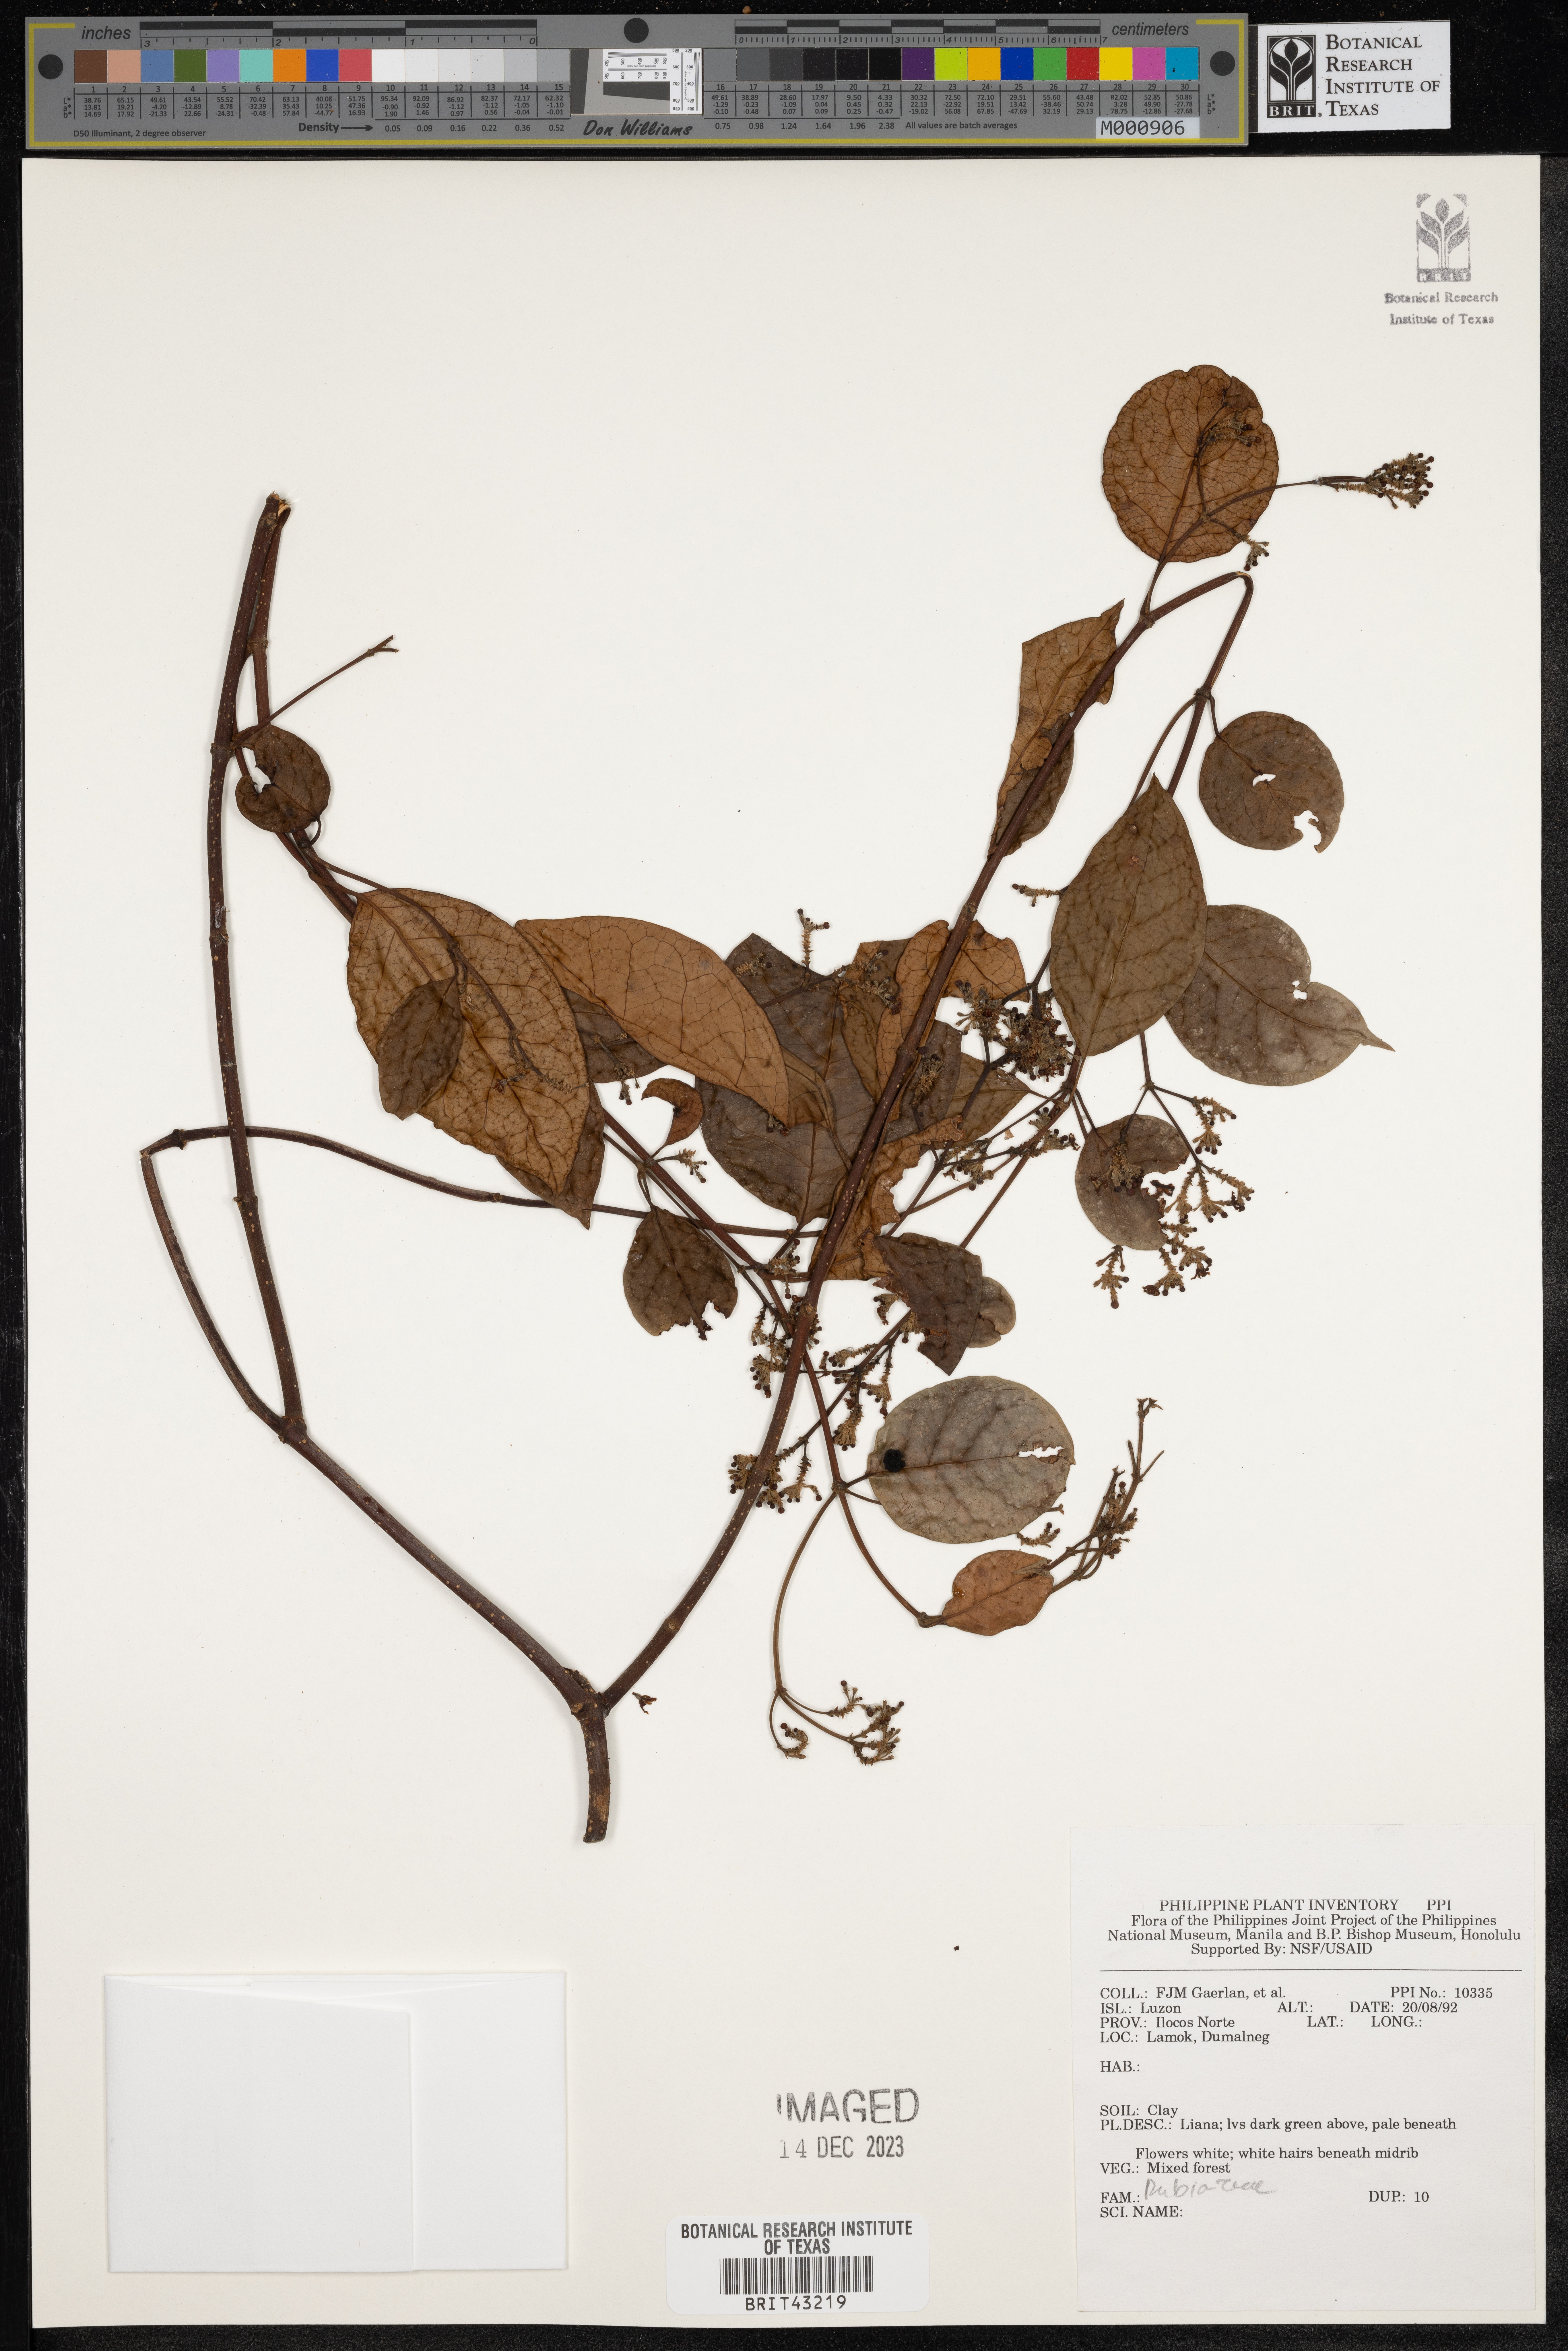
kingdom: Plantae
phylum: Tracheophyta
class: Magnoliopsida
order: Gentianales
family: Rubiaceae
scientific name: Rubiaceae
